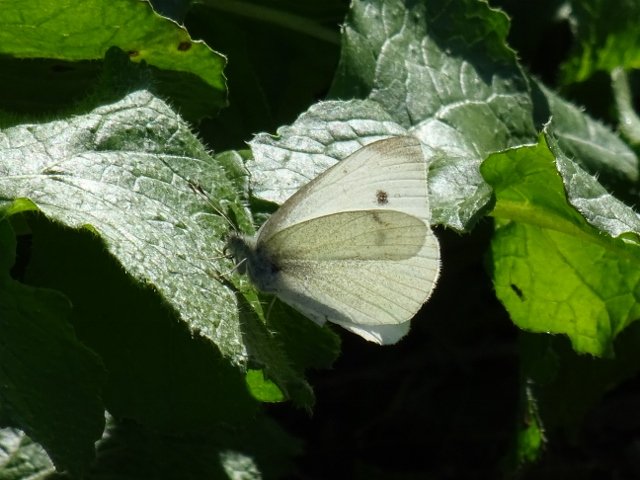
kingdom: Animalia
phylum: Arthropoda
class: Insecta
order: Lepidoptera
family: Pieridae
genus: Pieris
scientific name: Pieris rapae
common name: Cabbage White
